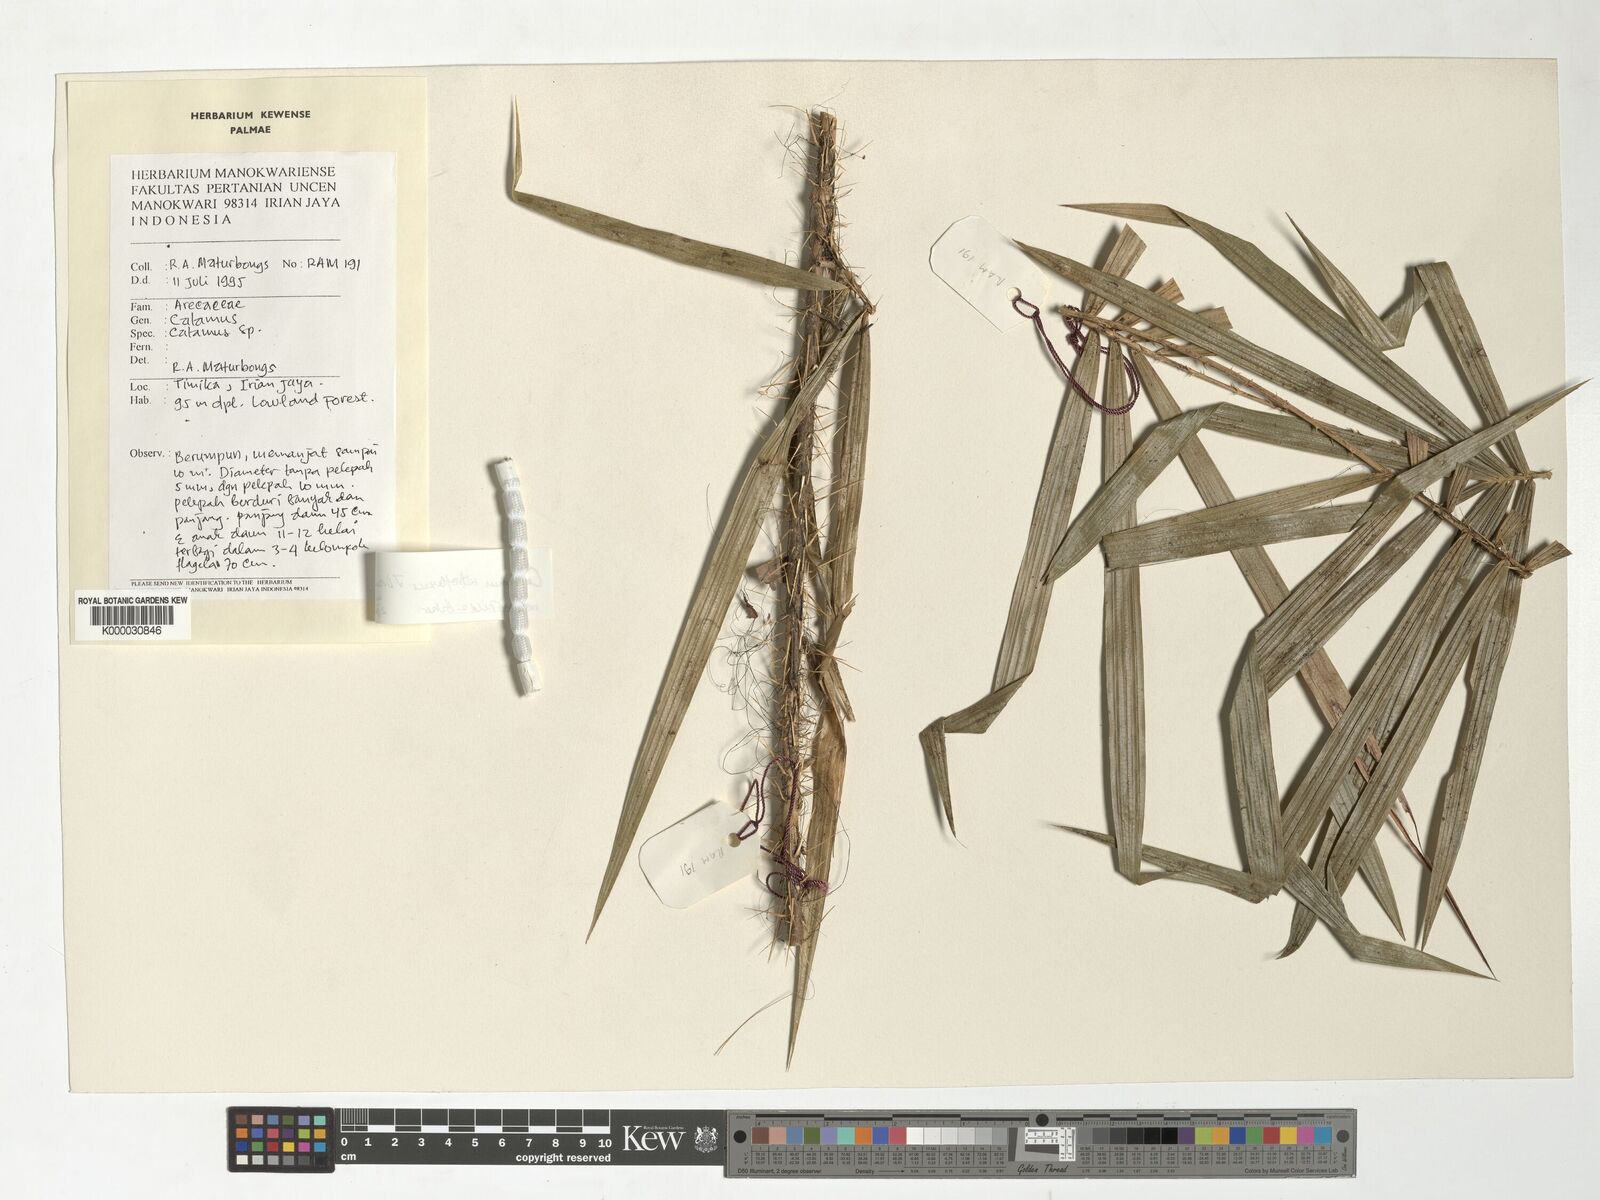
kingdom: Plantae
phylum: Tracheophyta
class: Liliopsida
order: Arecales
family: Arecaceae
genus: Calamus
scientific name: Calamus retroflexus
